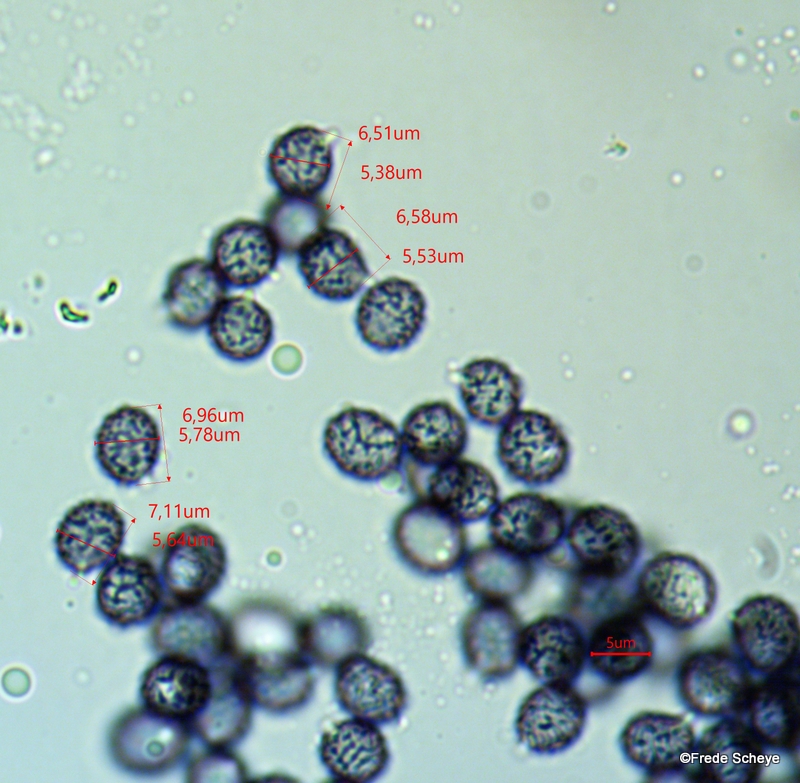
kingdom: Fungi
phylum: Basidiomycota
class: Agaricomycetes
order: Russulales
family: Russulaceae
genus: Russula
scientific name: Russula parazurea
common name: blågrå skørhat
